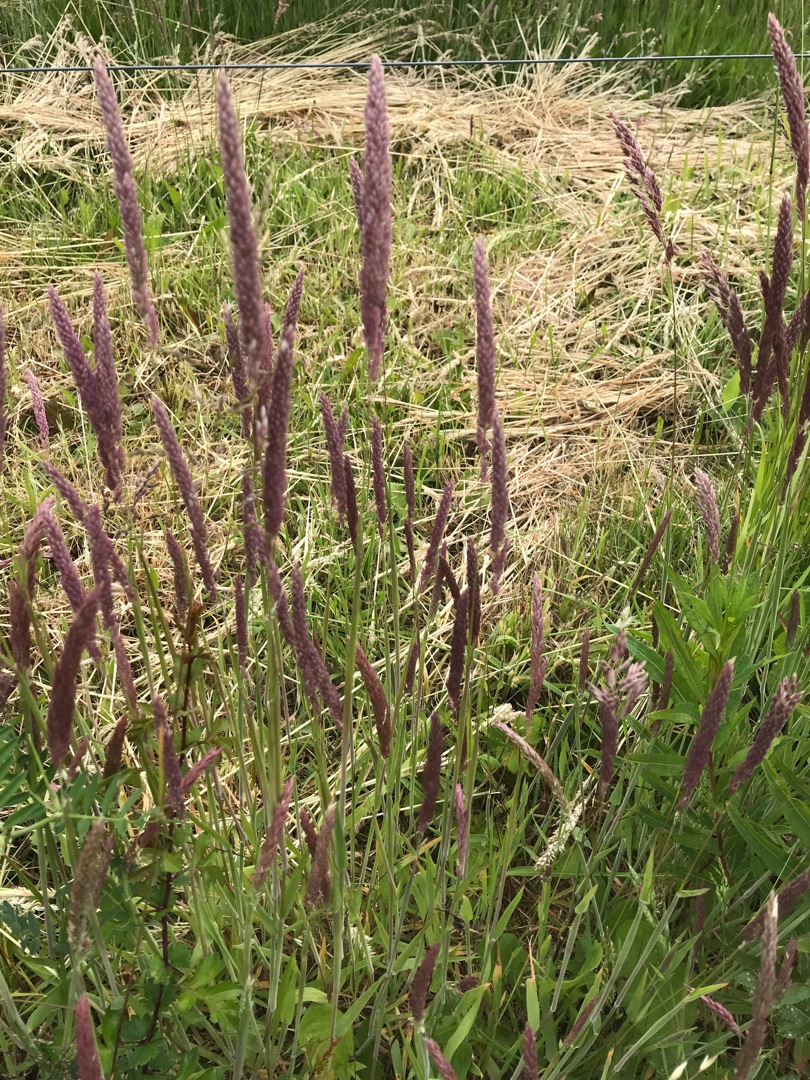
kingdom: Plantae
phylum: Tracheophyta
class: Liliopsida
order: Poales
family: Poaceae
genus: Holcus
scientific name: Holcus lanatus
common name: Fløjlsgræs
